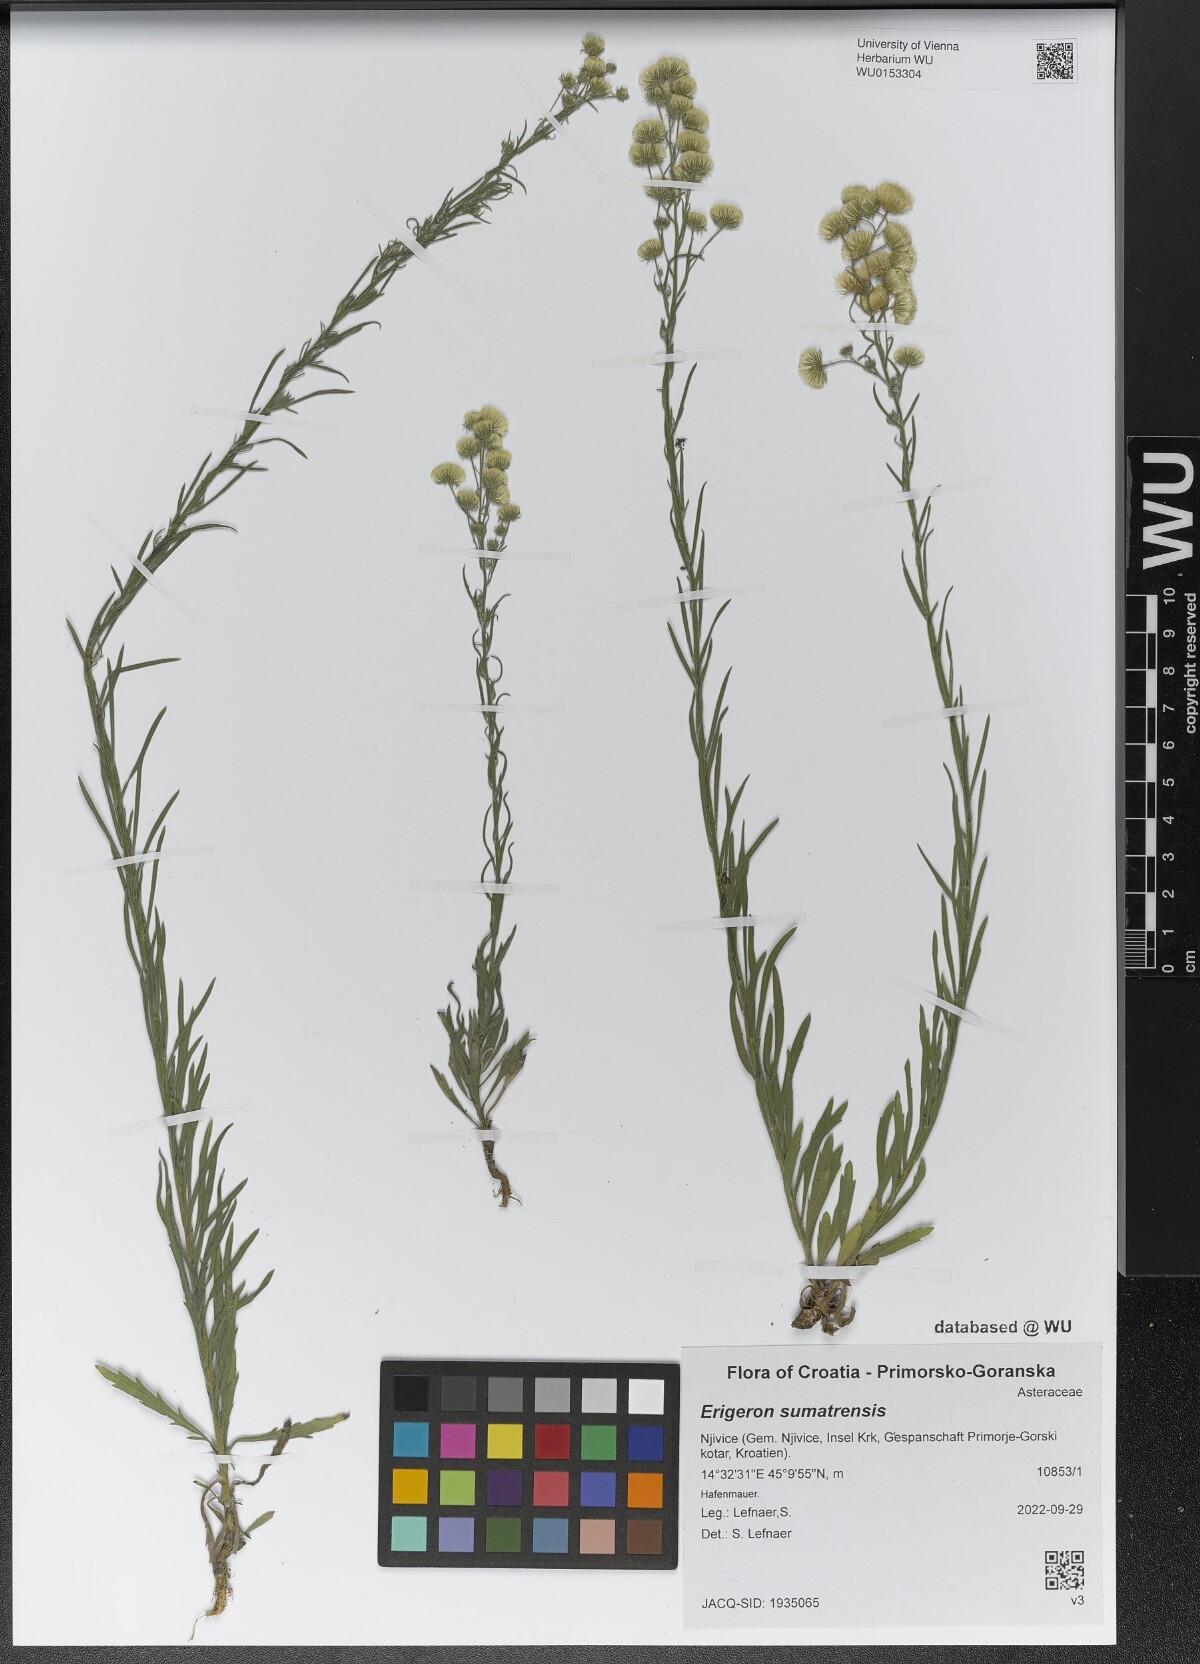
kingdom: Plantae
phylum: Tracheophyta
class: Magnoliopsida
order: Asterales
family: Asteraceae
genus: Erigeron
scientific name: Erigeron sumatrensis
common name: Daisy
